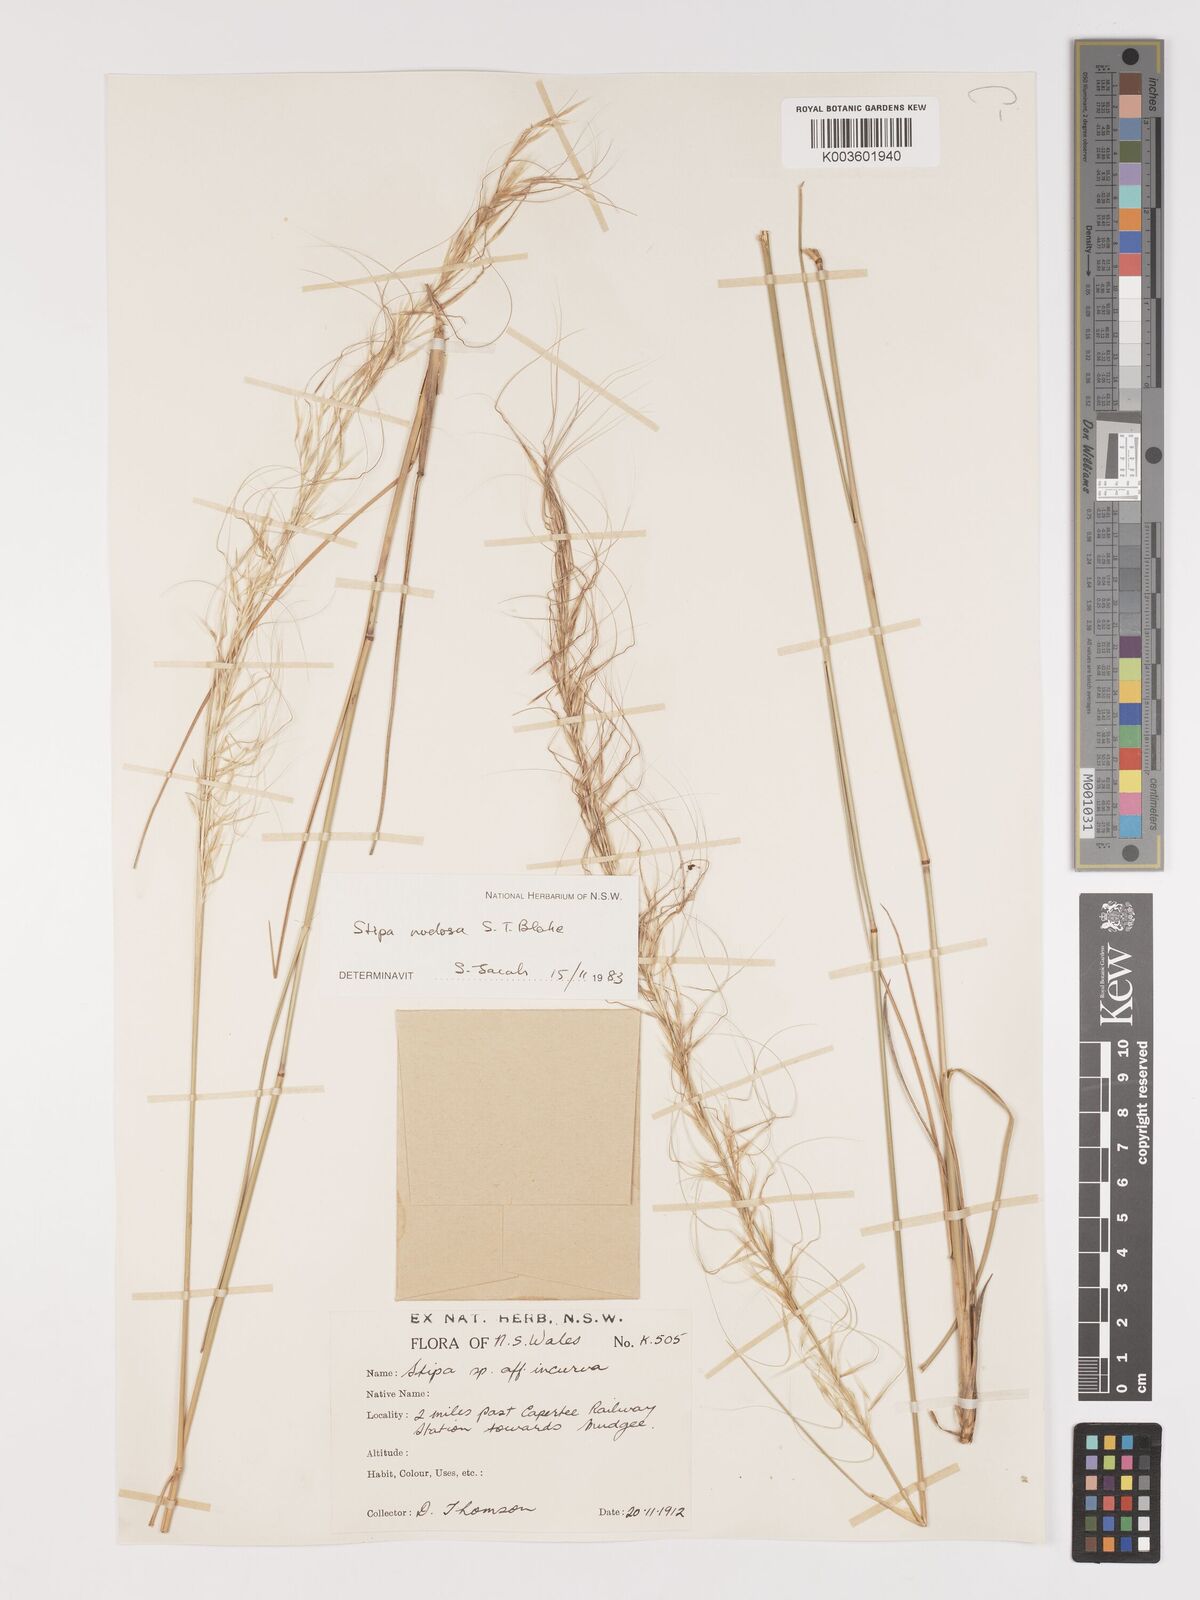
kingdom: Plantae
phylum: Tracheophyta
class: Liliopsida
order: Poales
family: Poaceae
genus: Austrostipa
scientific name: Austrostipa nodosa
